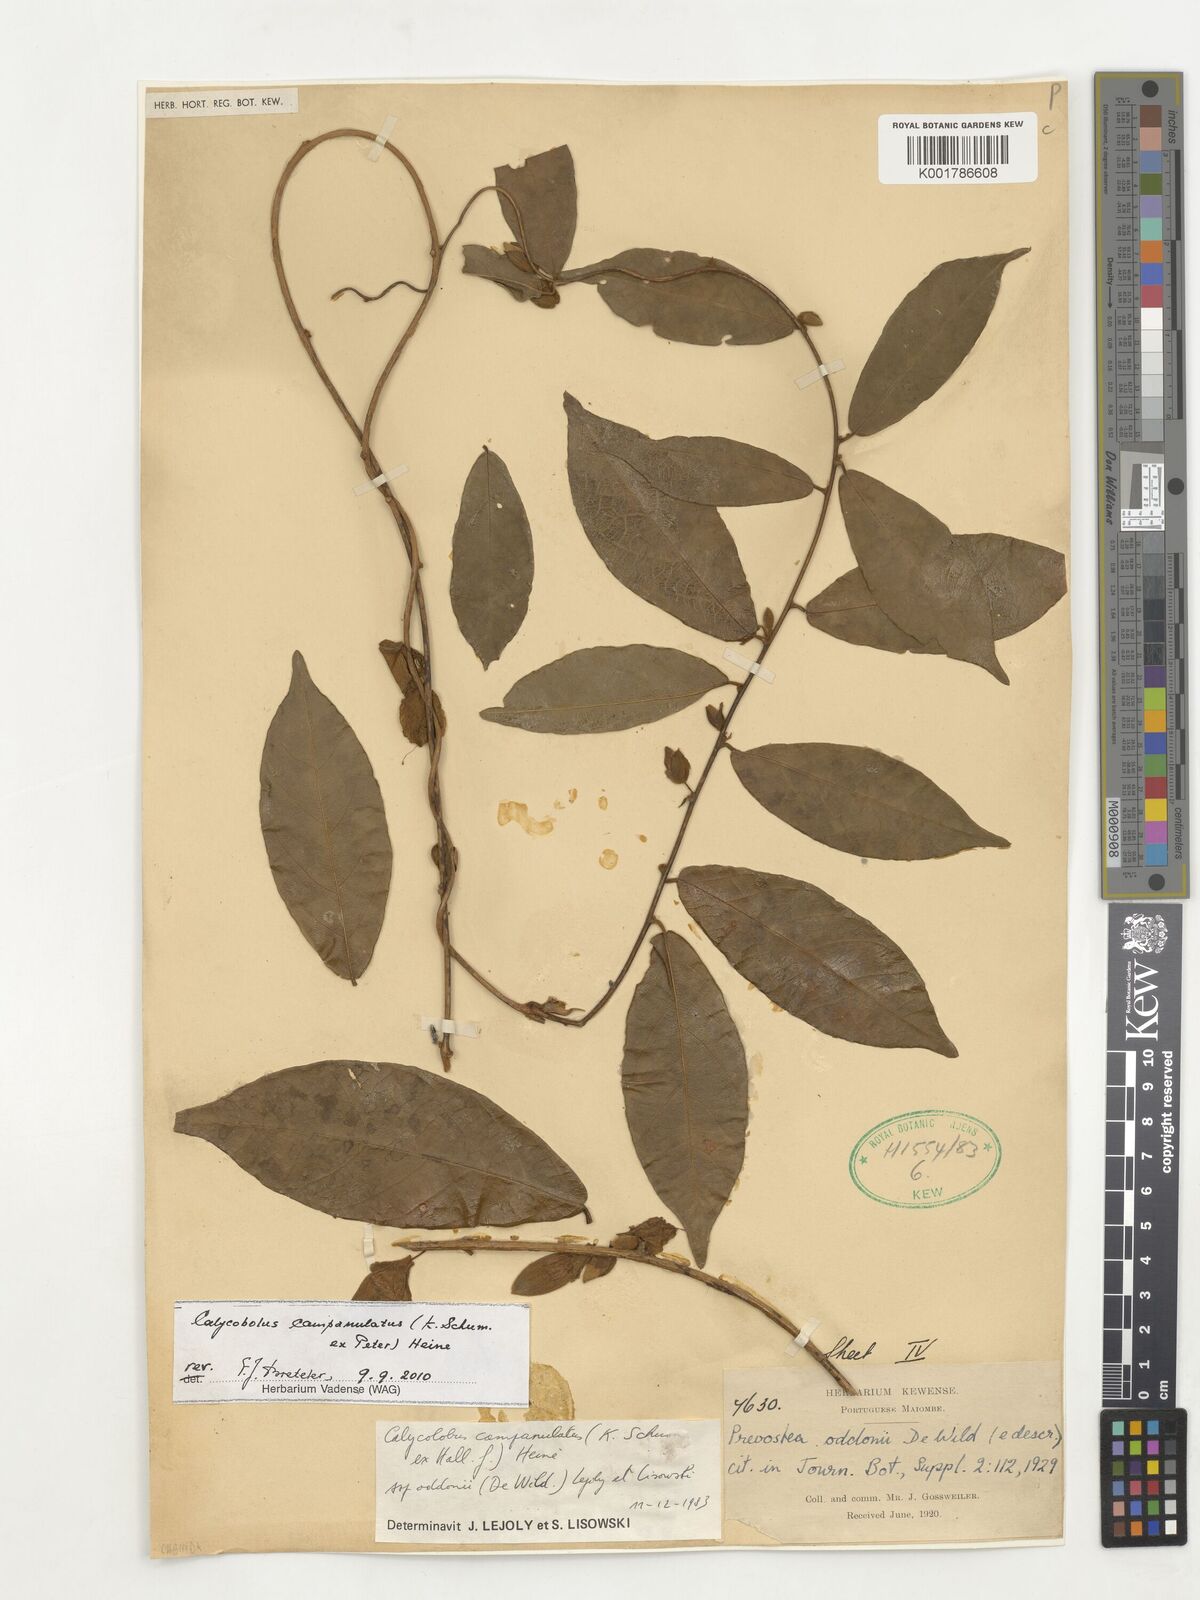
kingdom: Plantae
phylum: Tracheophyta
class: Magnoliopsida
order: Solanales
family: Convolvulaceae
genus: Calycobolus
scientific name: Calycobolus campanulatus
